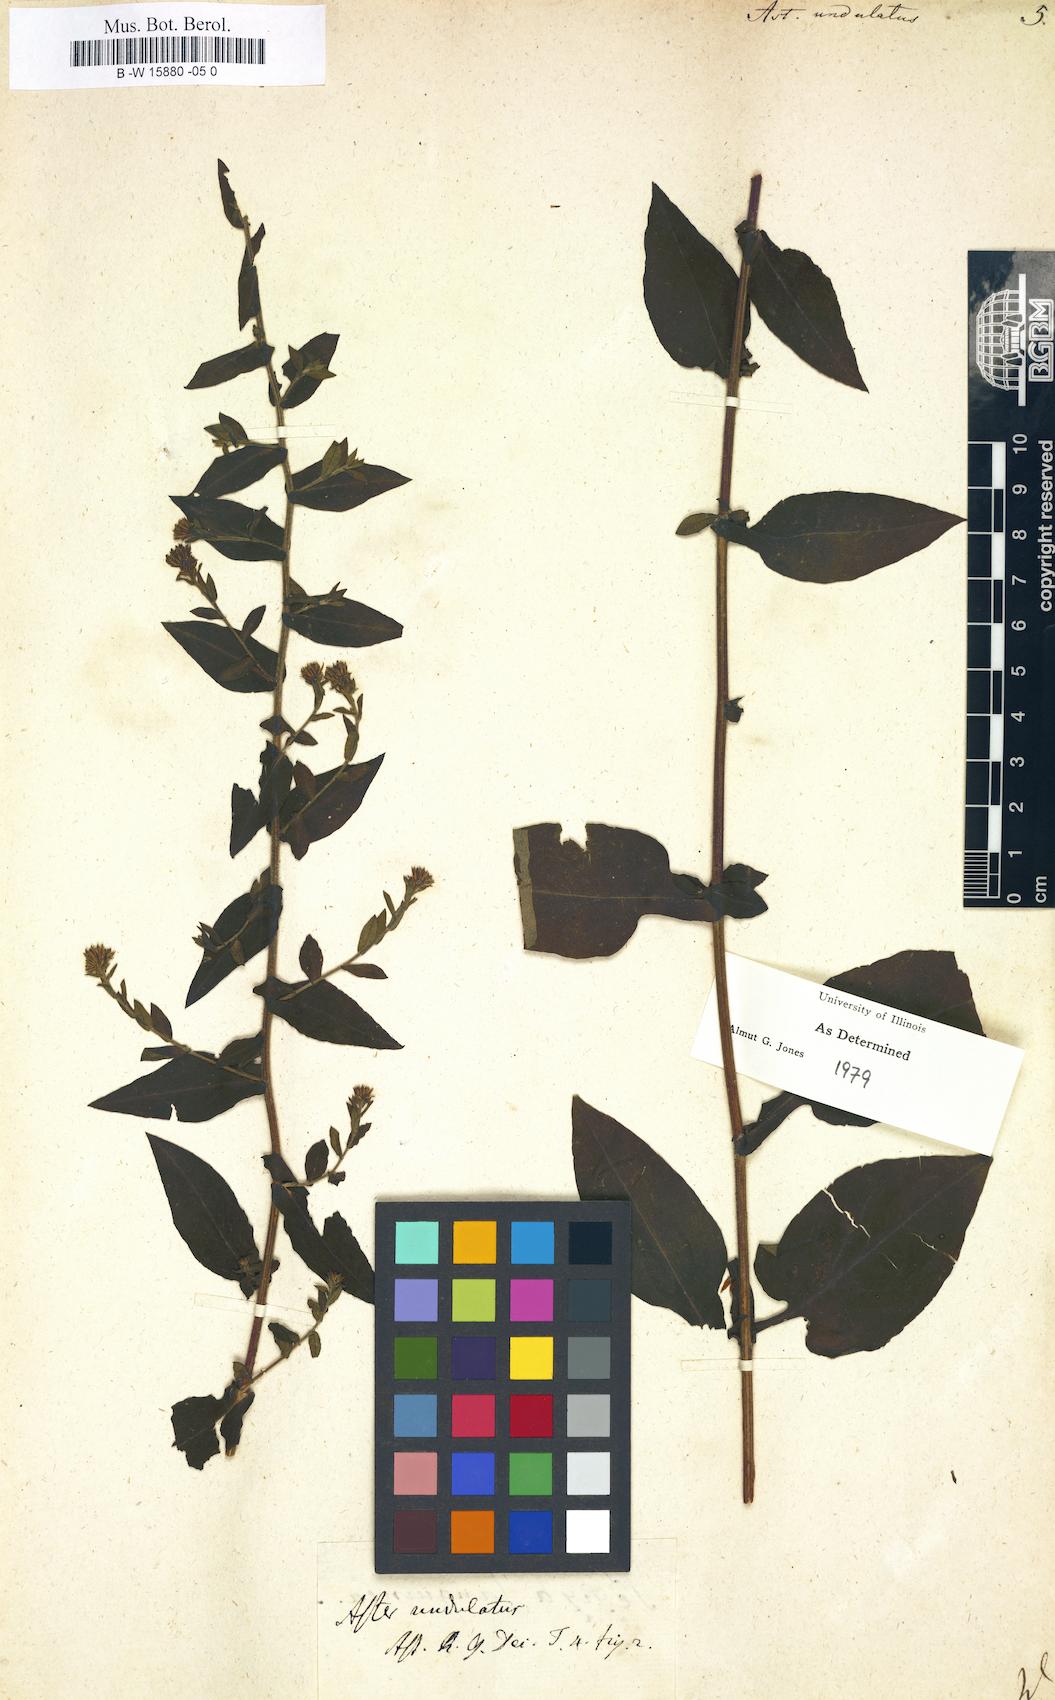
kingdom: Plantae
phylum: Tracheophyta
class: Magnoliopsida
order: Asterales
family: Asteraceae
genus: Symphyotrichum
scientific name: Symphyotrichum undulatum
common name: Clasping heart-leaf aster
